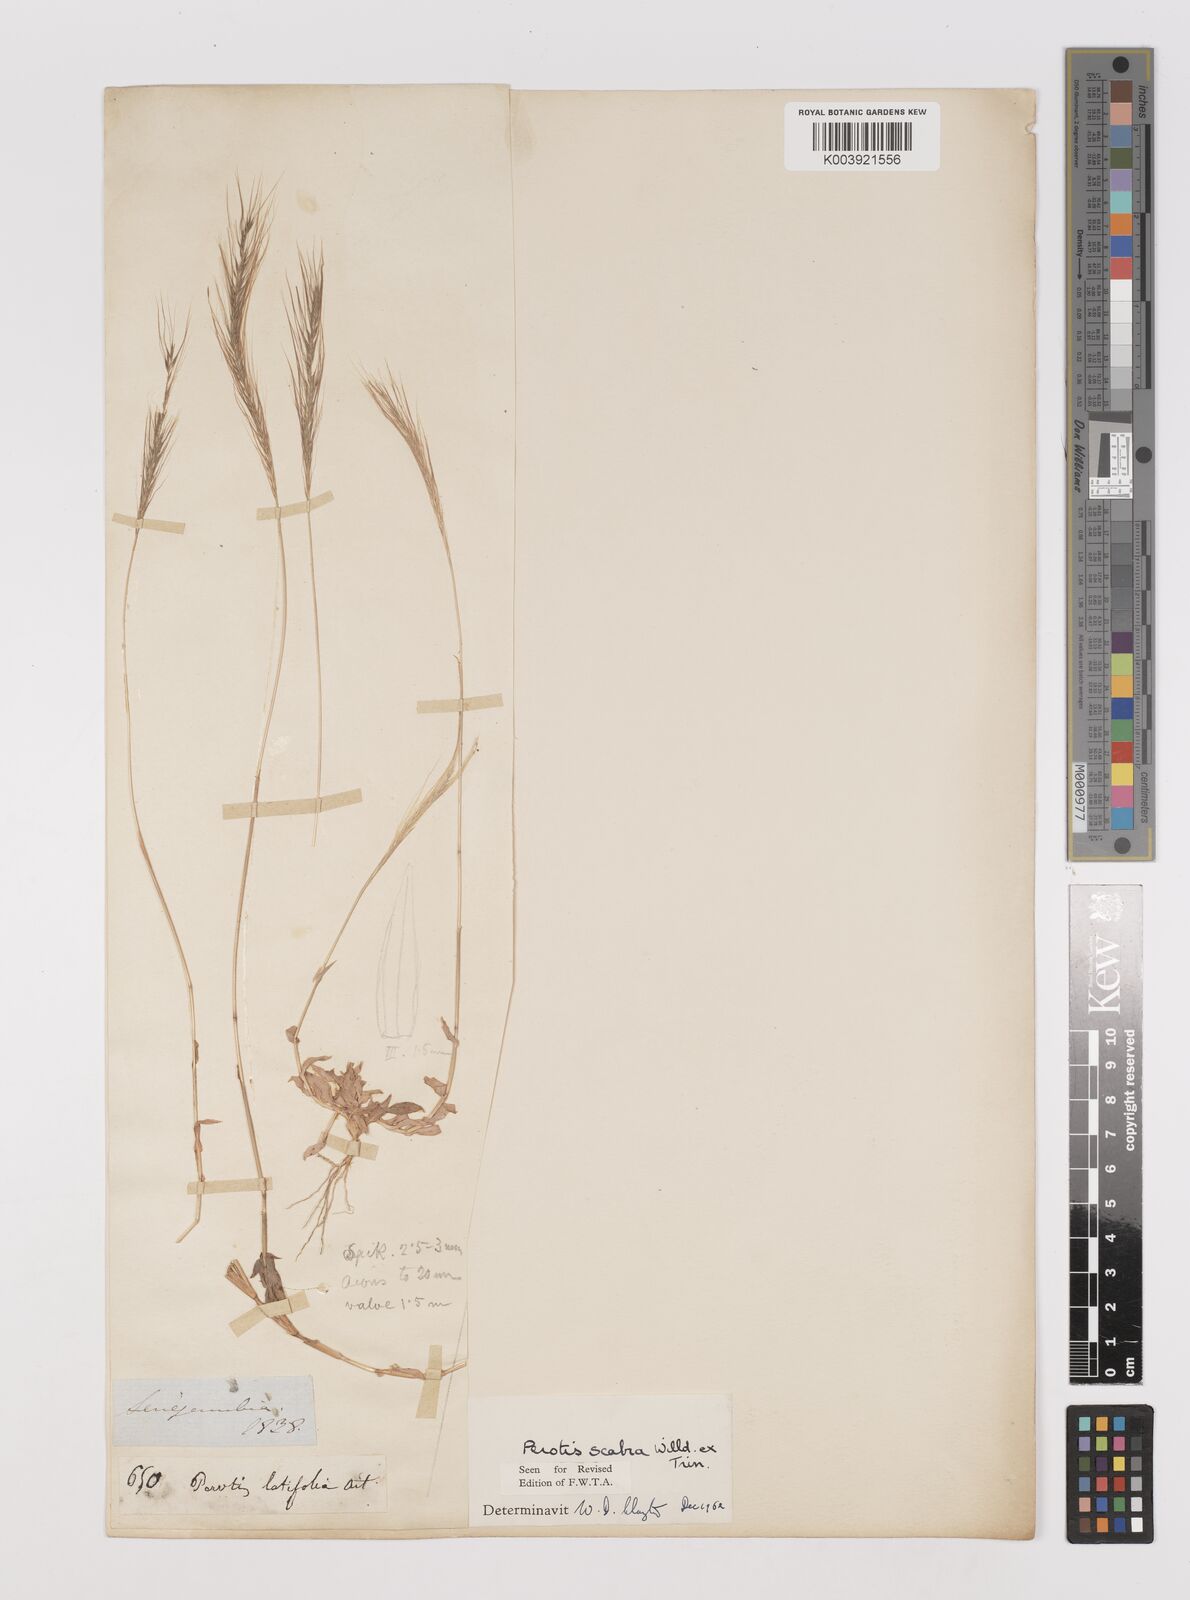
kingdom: Plantae
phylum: Tracheophyta
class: Liliopsida
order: Poales
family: Poaceae
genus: Perotis
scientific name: Perotis scabra
